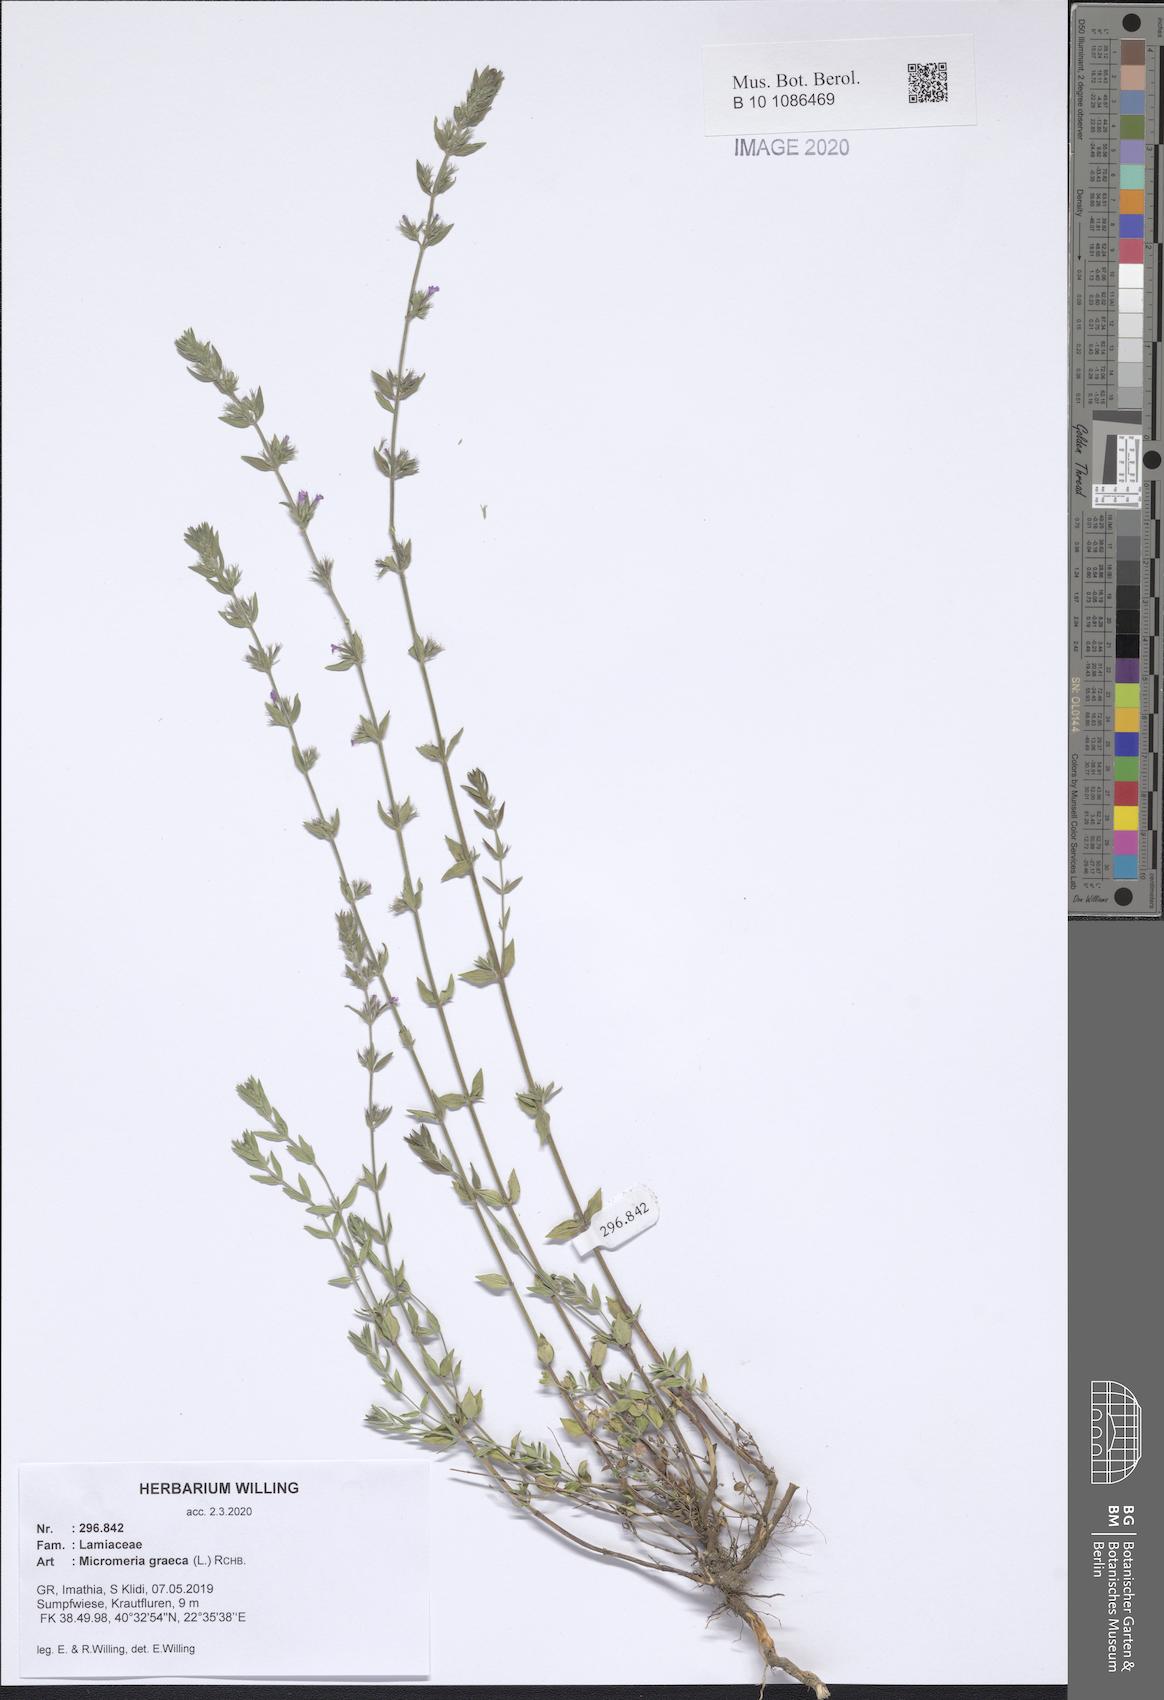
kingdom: Plantae
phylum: Tracheophyta
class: Magnoliopsida
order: Lamiales
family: Lamiaceae
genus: Micromeria
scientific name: Micromeria graeca
